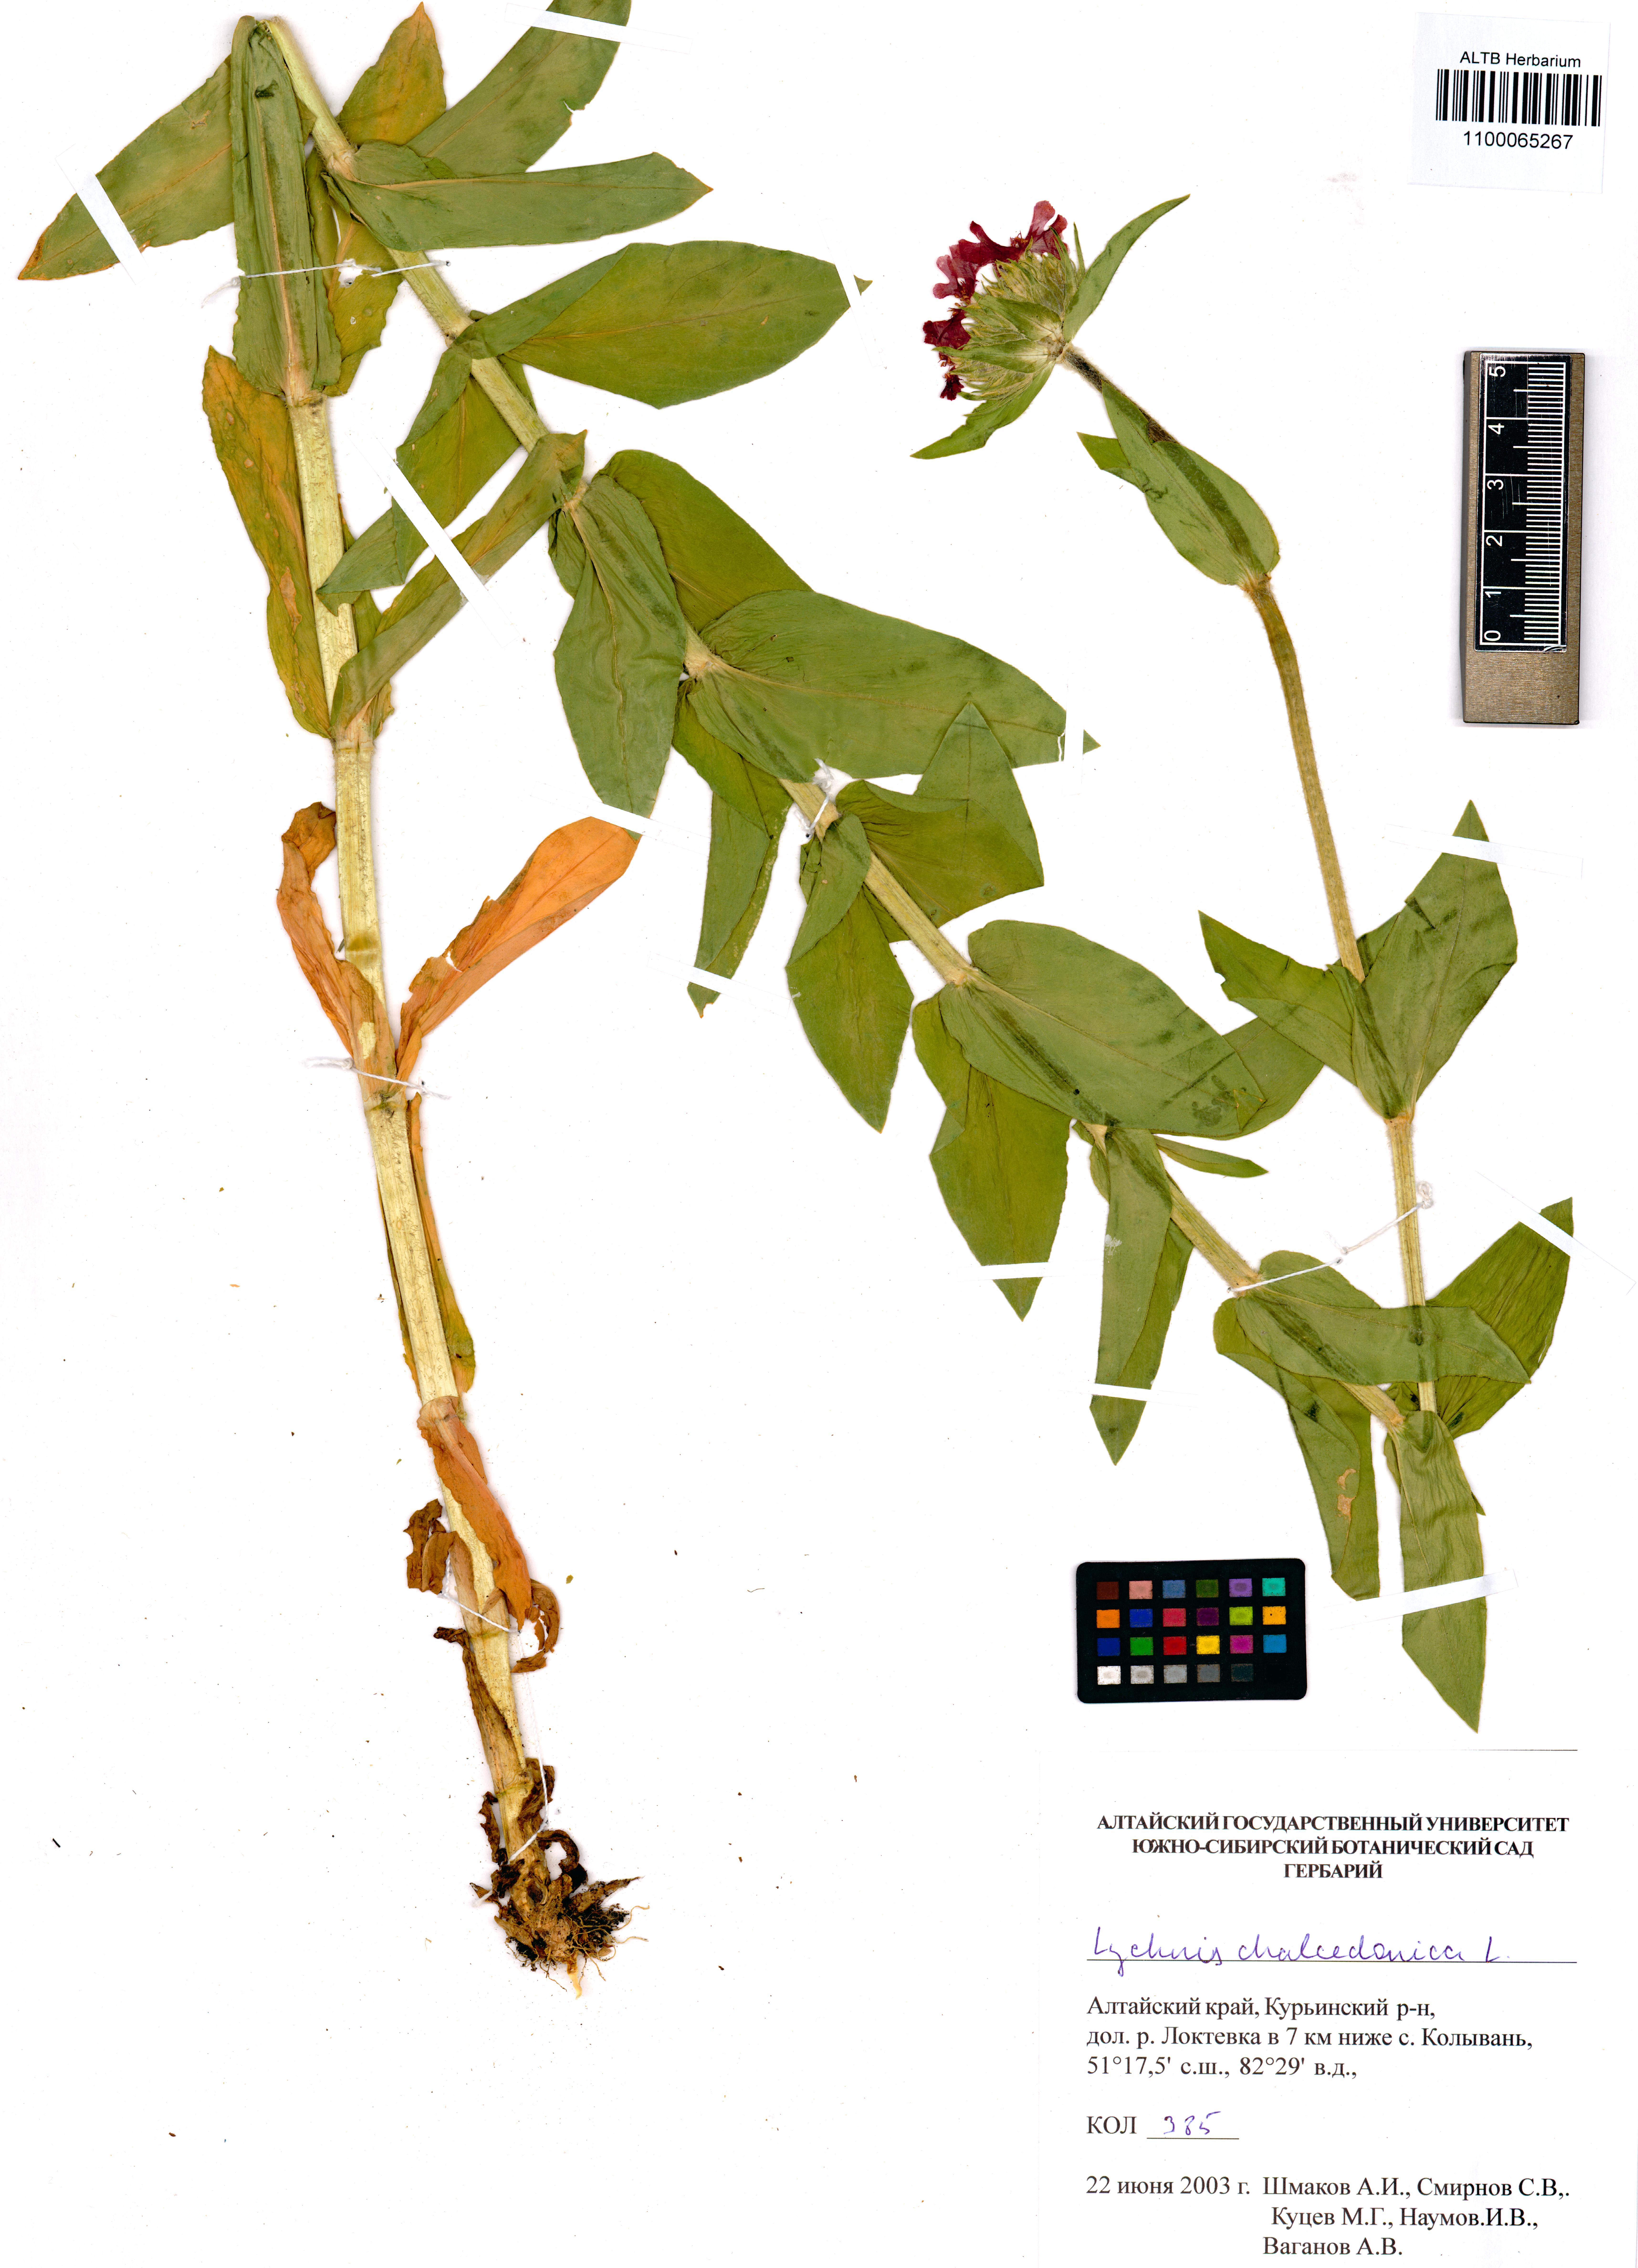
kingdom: Plantae
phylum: Tracheophyta
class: Magnoliopsida
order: Caryophyllales
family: Caryophyllaceae
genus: Silene
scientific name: Silene chalcedonica
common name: Maltese-cross
